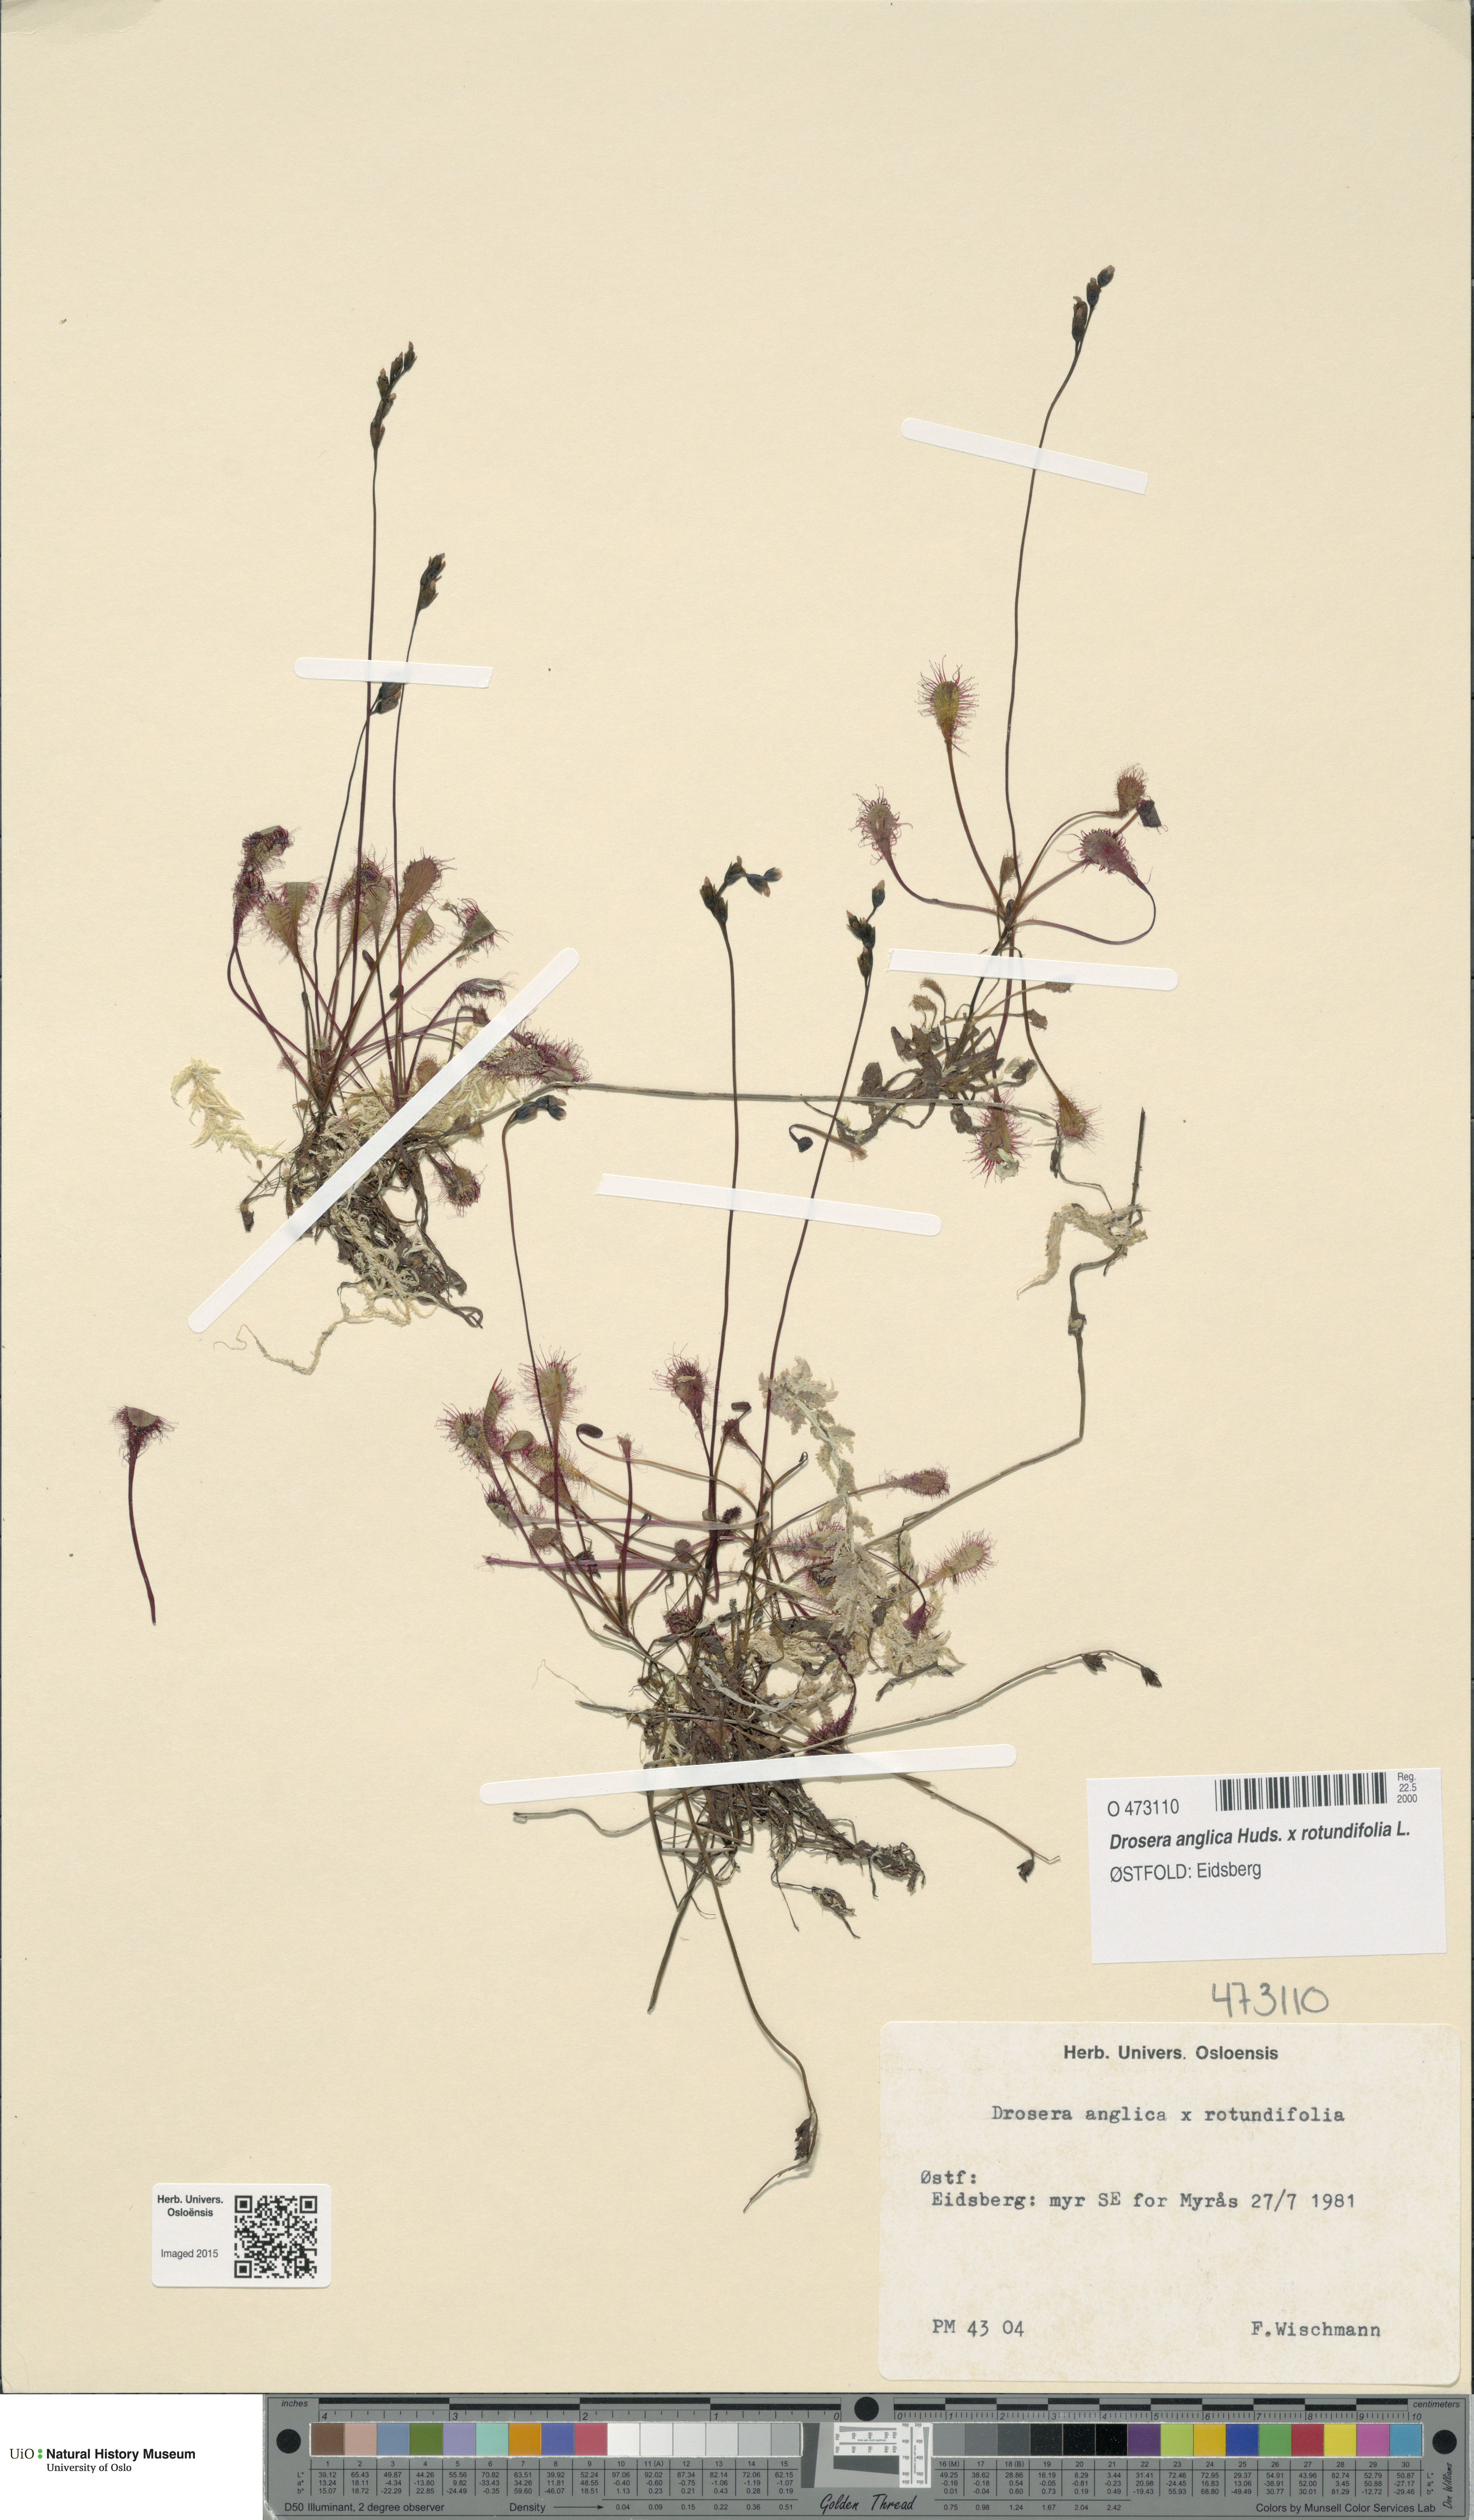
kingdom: Plantae
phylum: Tracheophyta
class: Magnoliopsida
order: Caryophyllales
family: Droseraceae
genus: Drosera
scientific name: Drosera
